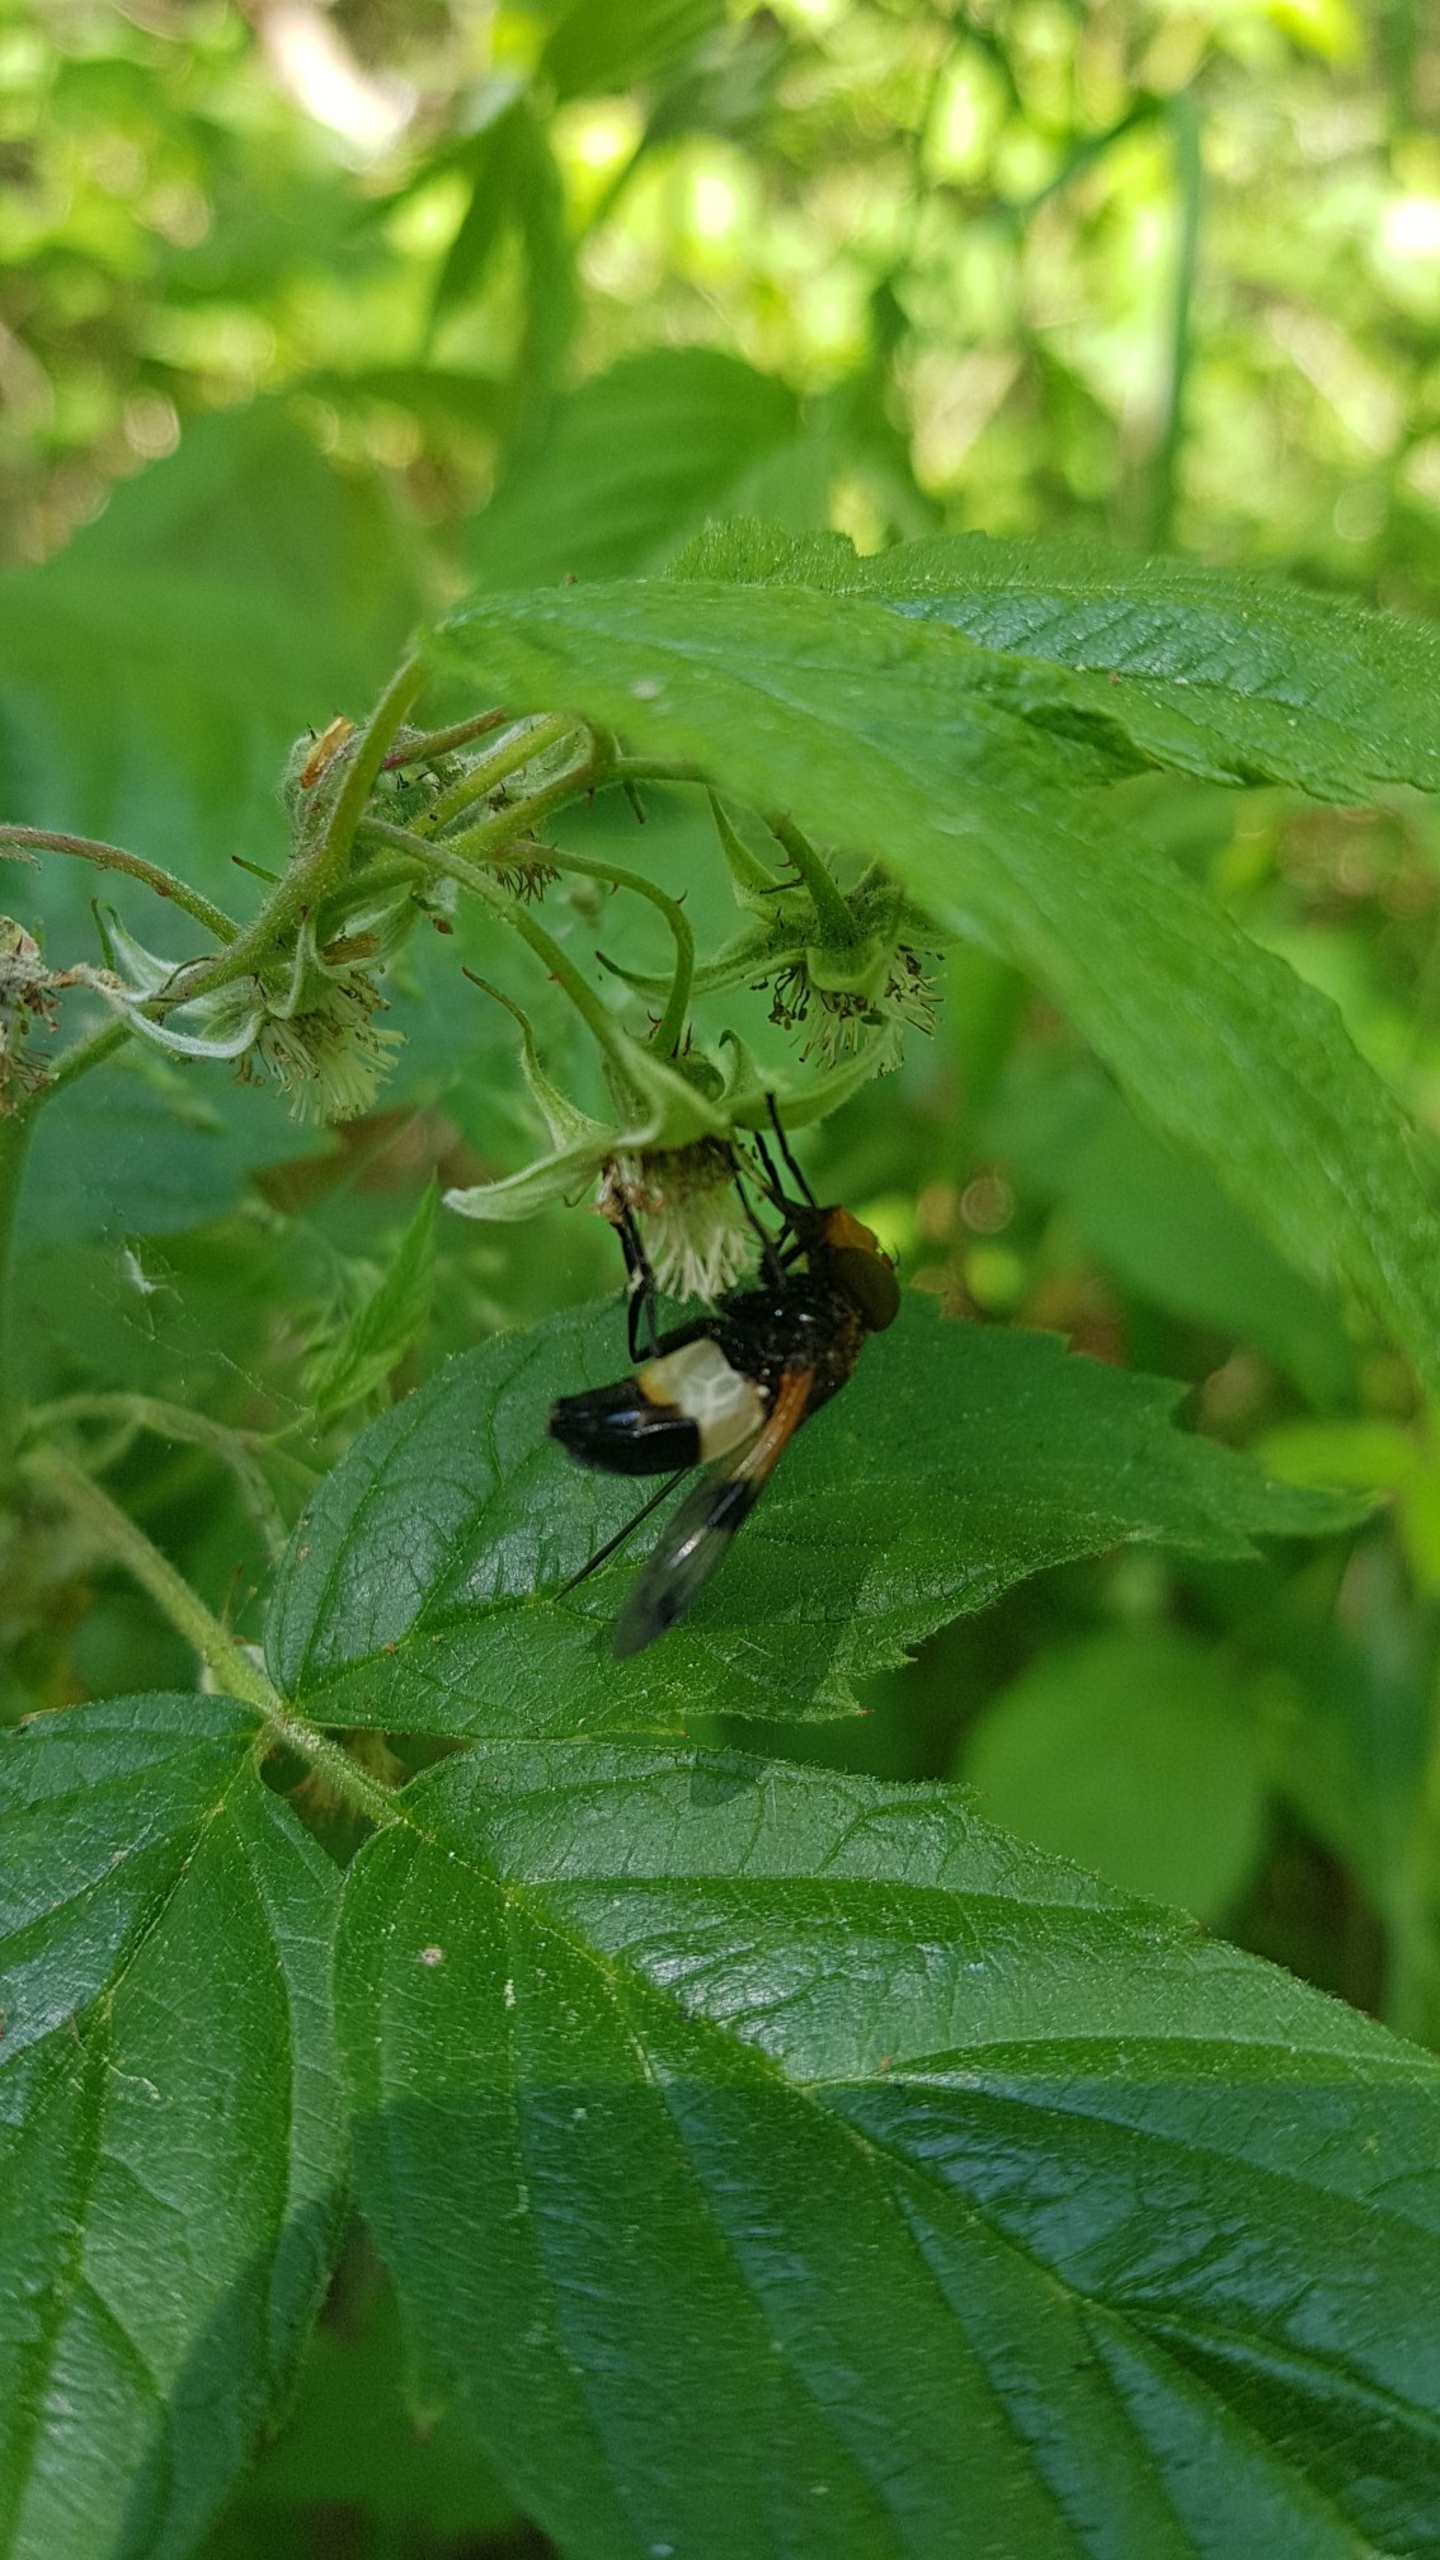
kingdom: Animalia
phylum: Arthropoda
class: Insecta
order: Diptera
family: Syrphidae
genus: Volucella
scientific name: Volucella pellucens
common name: Hvidbåndet humlesvirreflue
